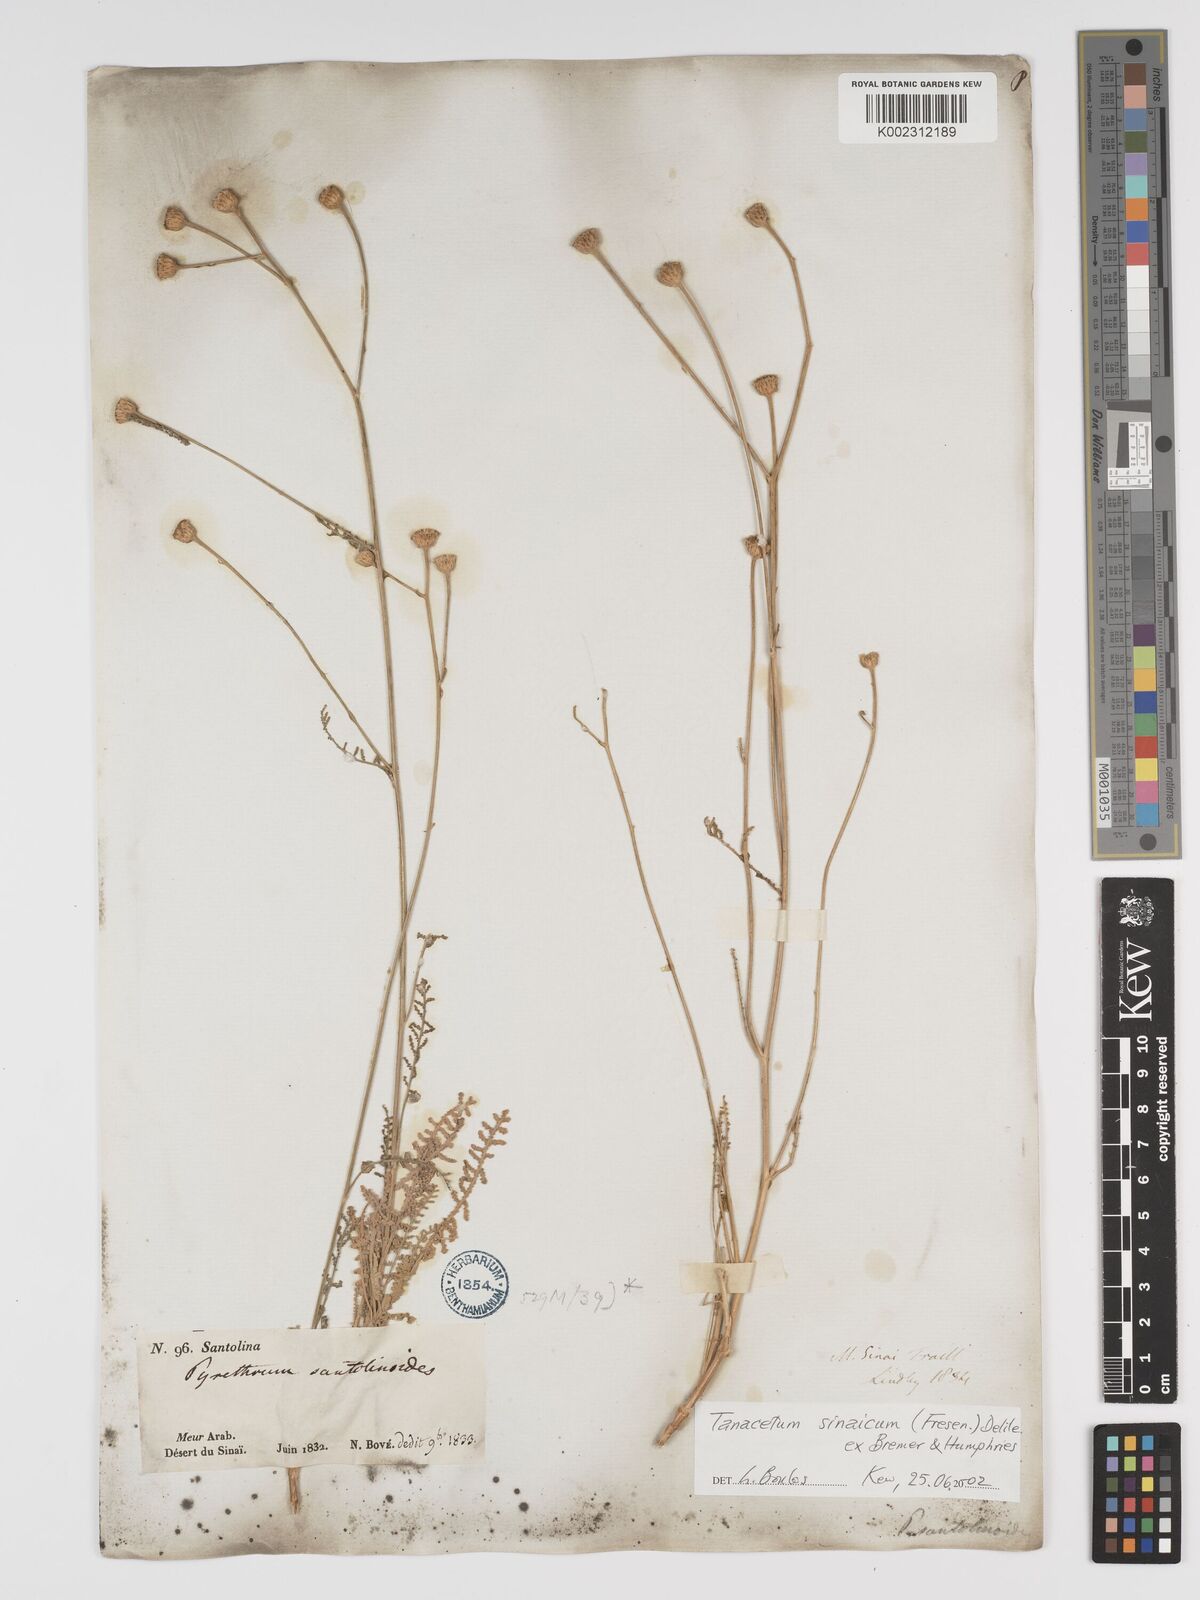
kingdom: Plantae
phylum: Tracheophyta
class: Magnoliopsida
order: Asterales
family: Asteraceae
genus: Tanacetum
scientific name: Tanacetum sinaicum
